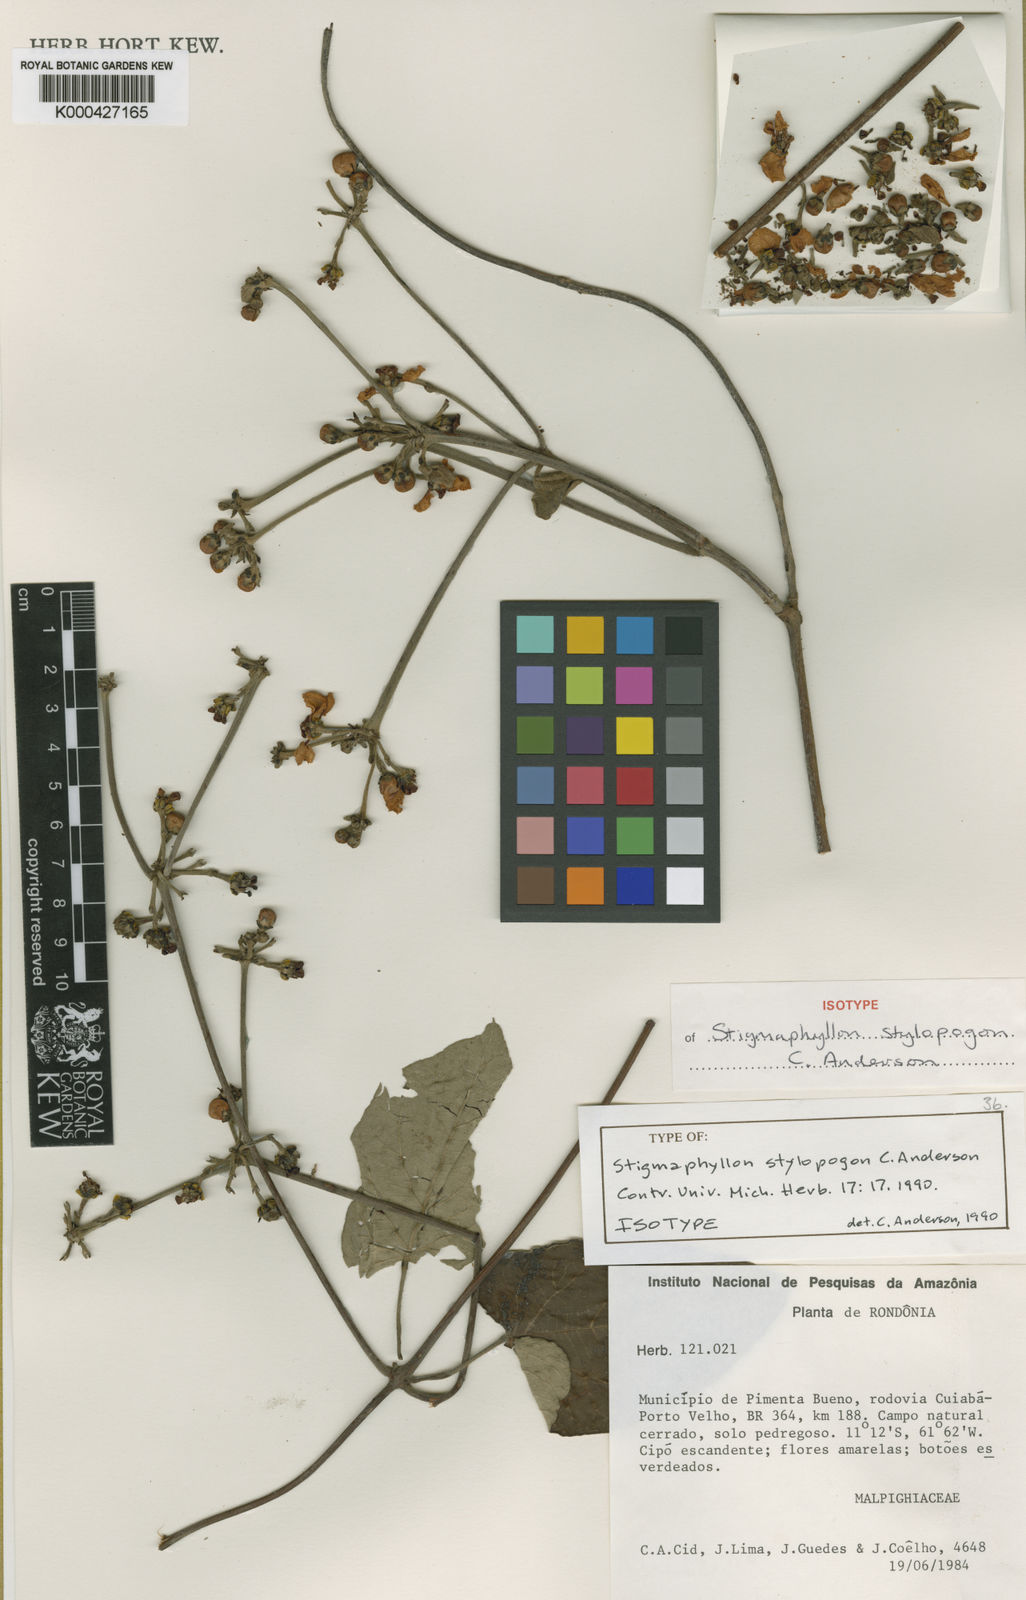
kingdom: Plantae
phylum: Tracheophyta
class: Magnoliopsida
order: Malpighiales
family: Malpighiaceae
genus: Stigmaphyllon
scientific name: Stigmaphyllon stylopogon
